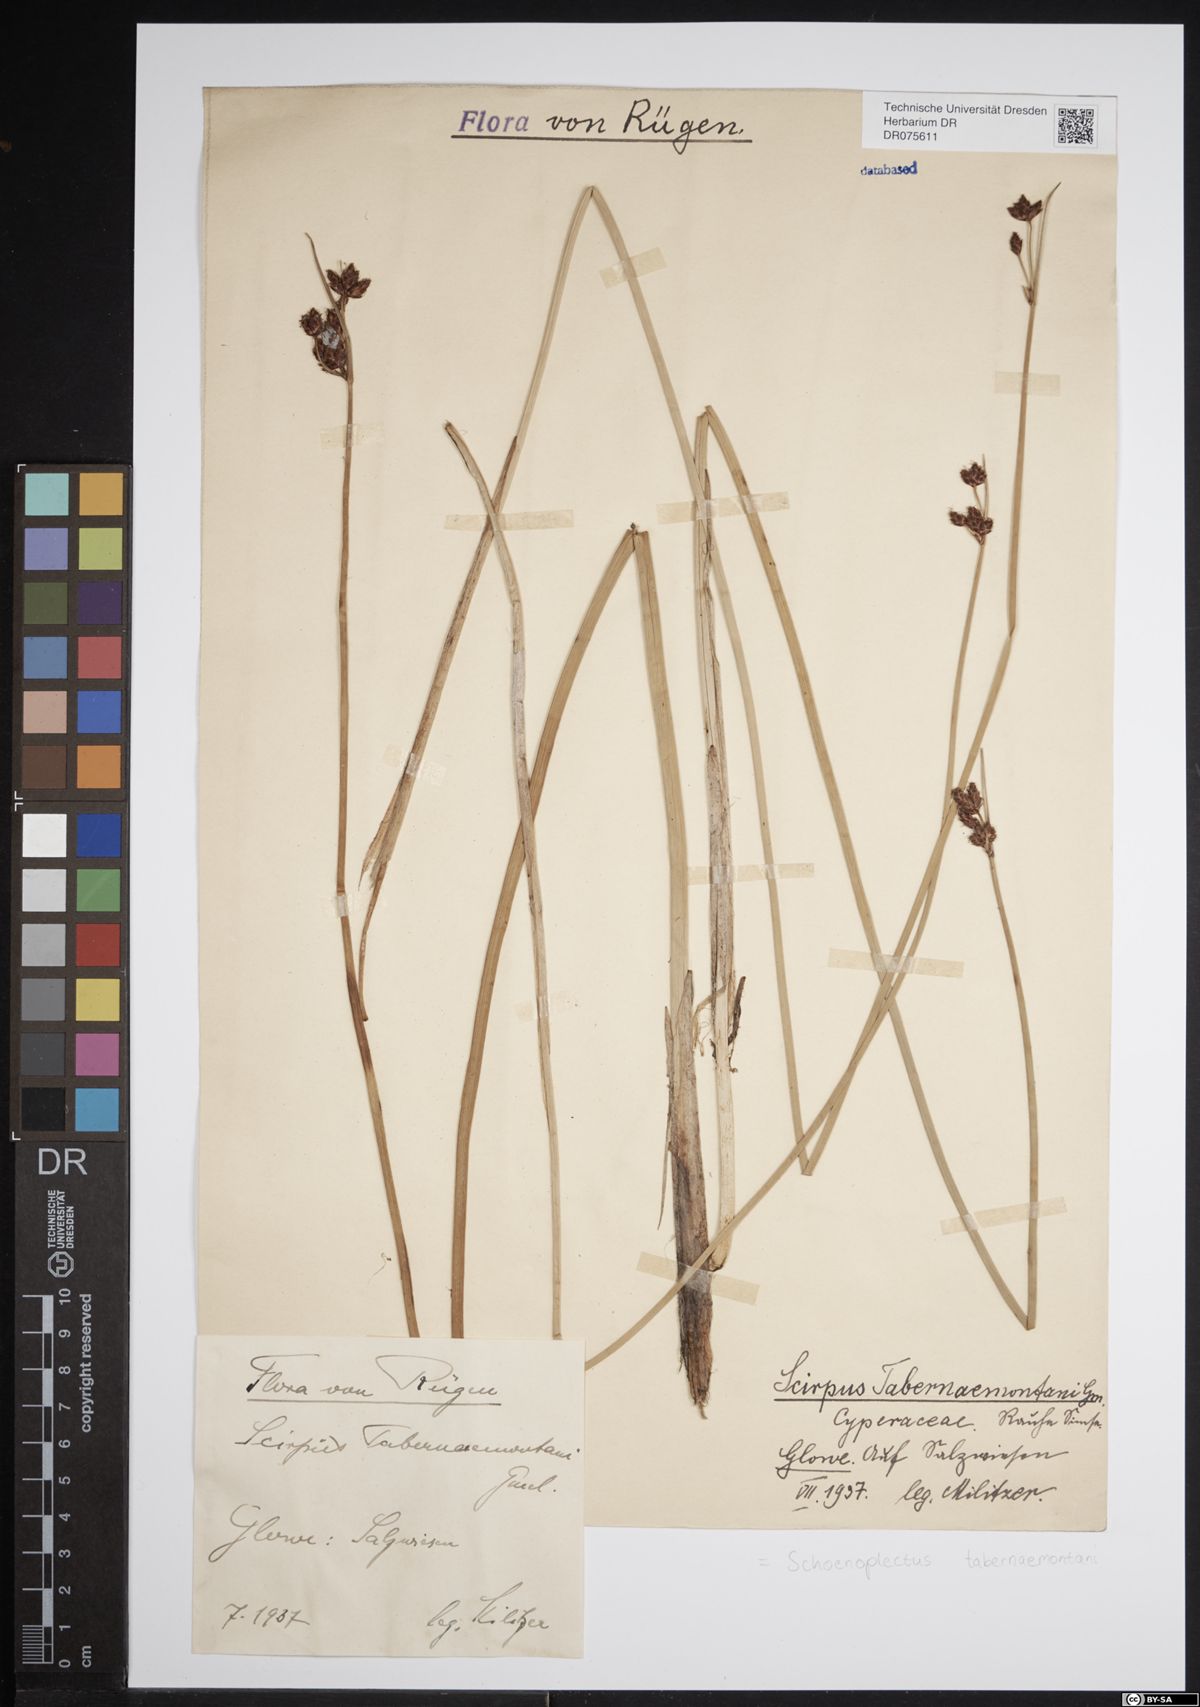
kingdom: Plantae
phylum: Tracheophyta
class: Liliopsida
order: Poales
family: Cyperaceae
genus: Schoenoplectus
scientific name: Schoenoplectus tabernaemontani
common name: Grey club-rush
